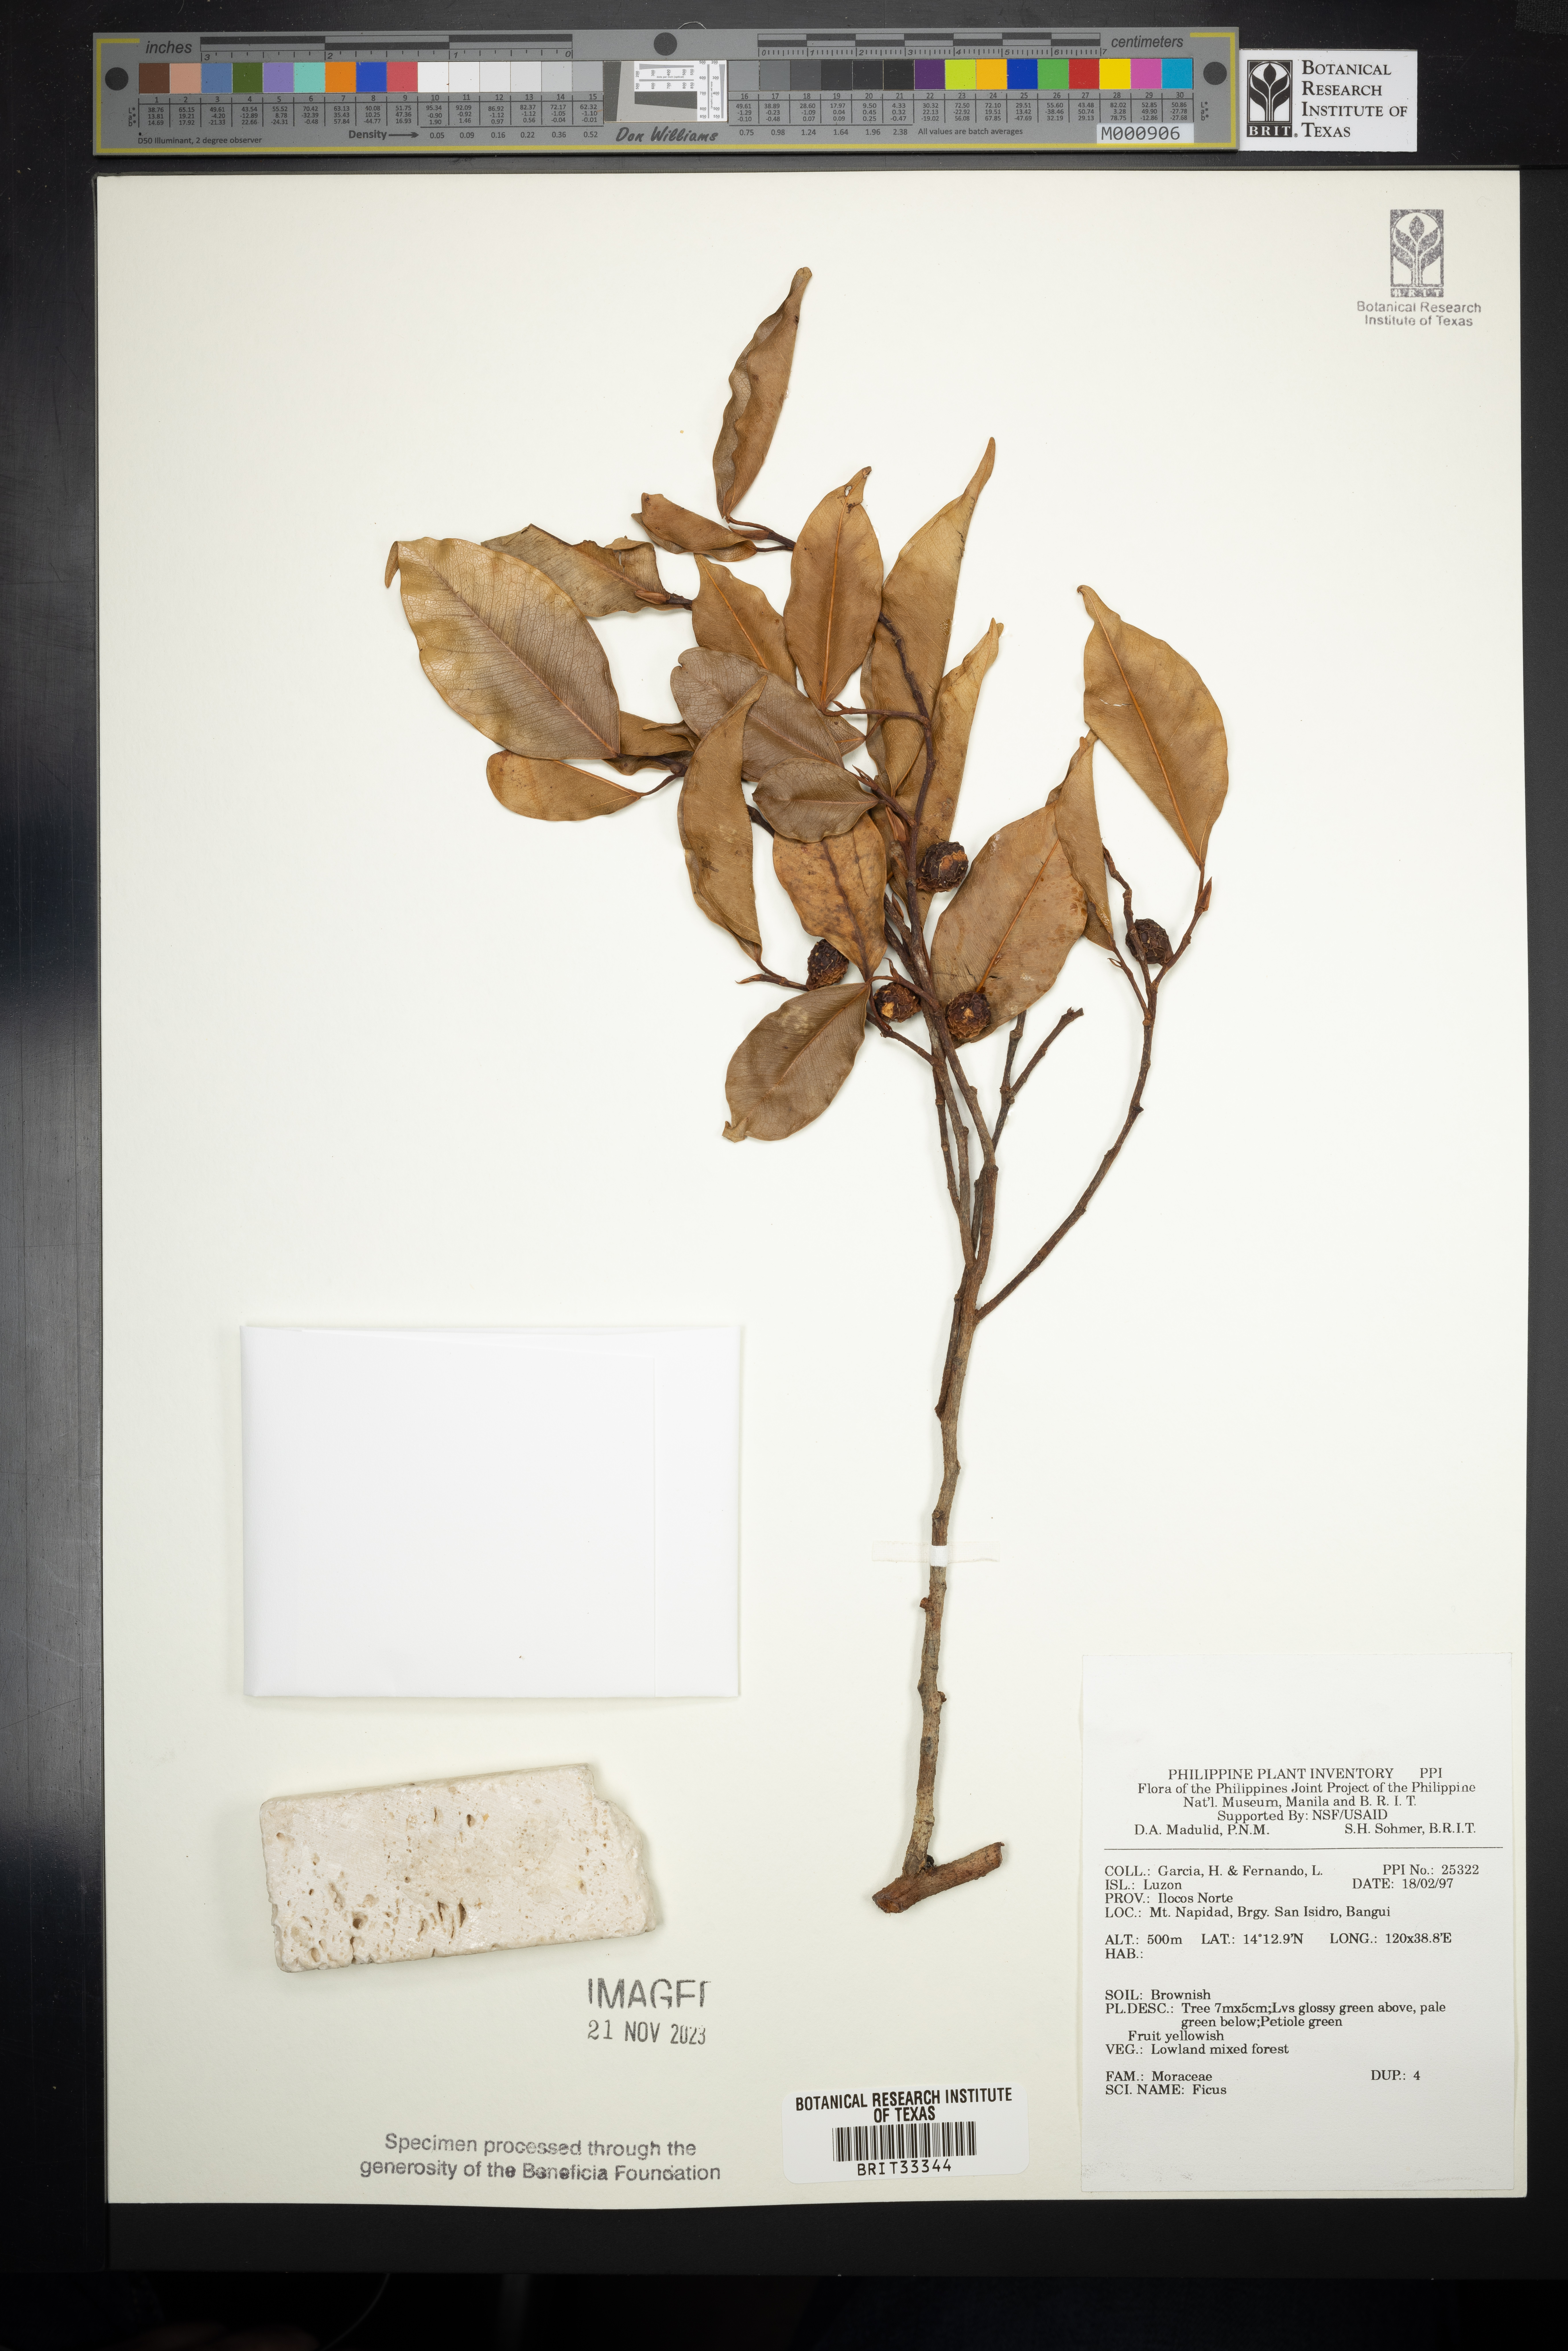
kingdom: Plantae
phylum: Tracheophyta
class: Magnoliopsida
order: Rosales
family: Moraceae
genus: Ficus
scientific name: Ficus
